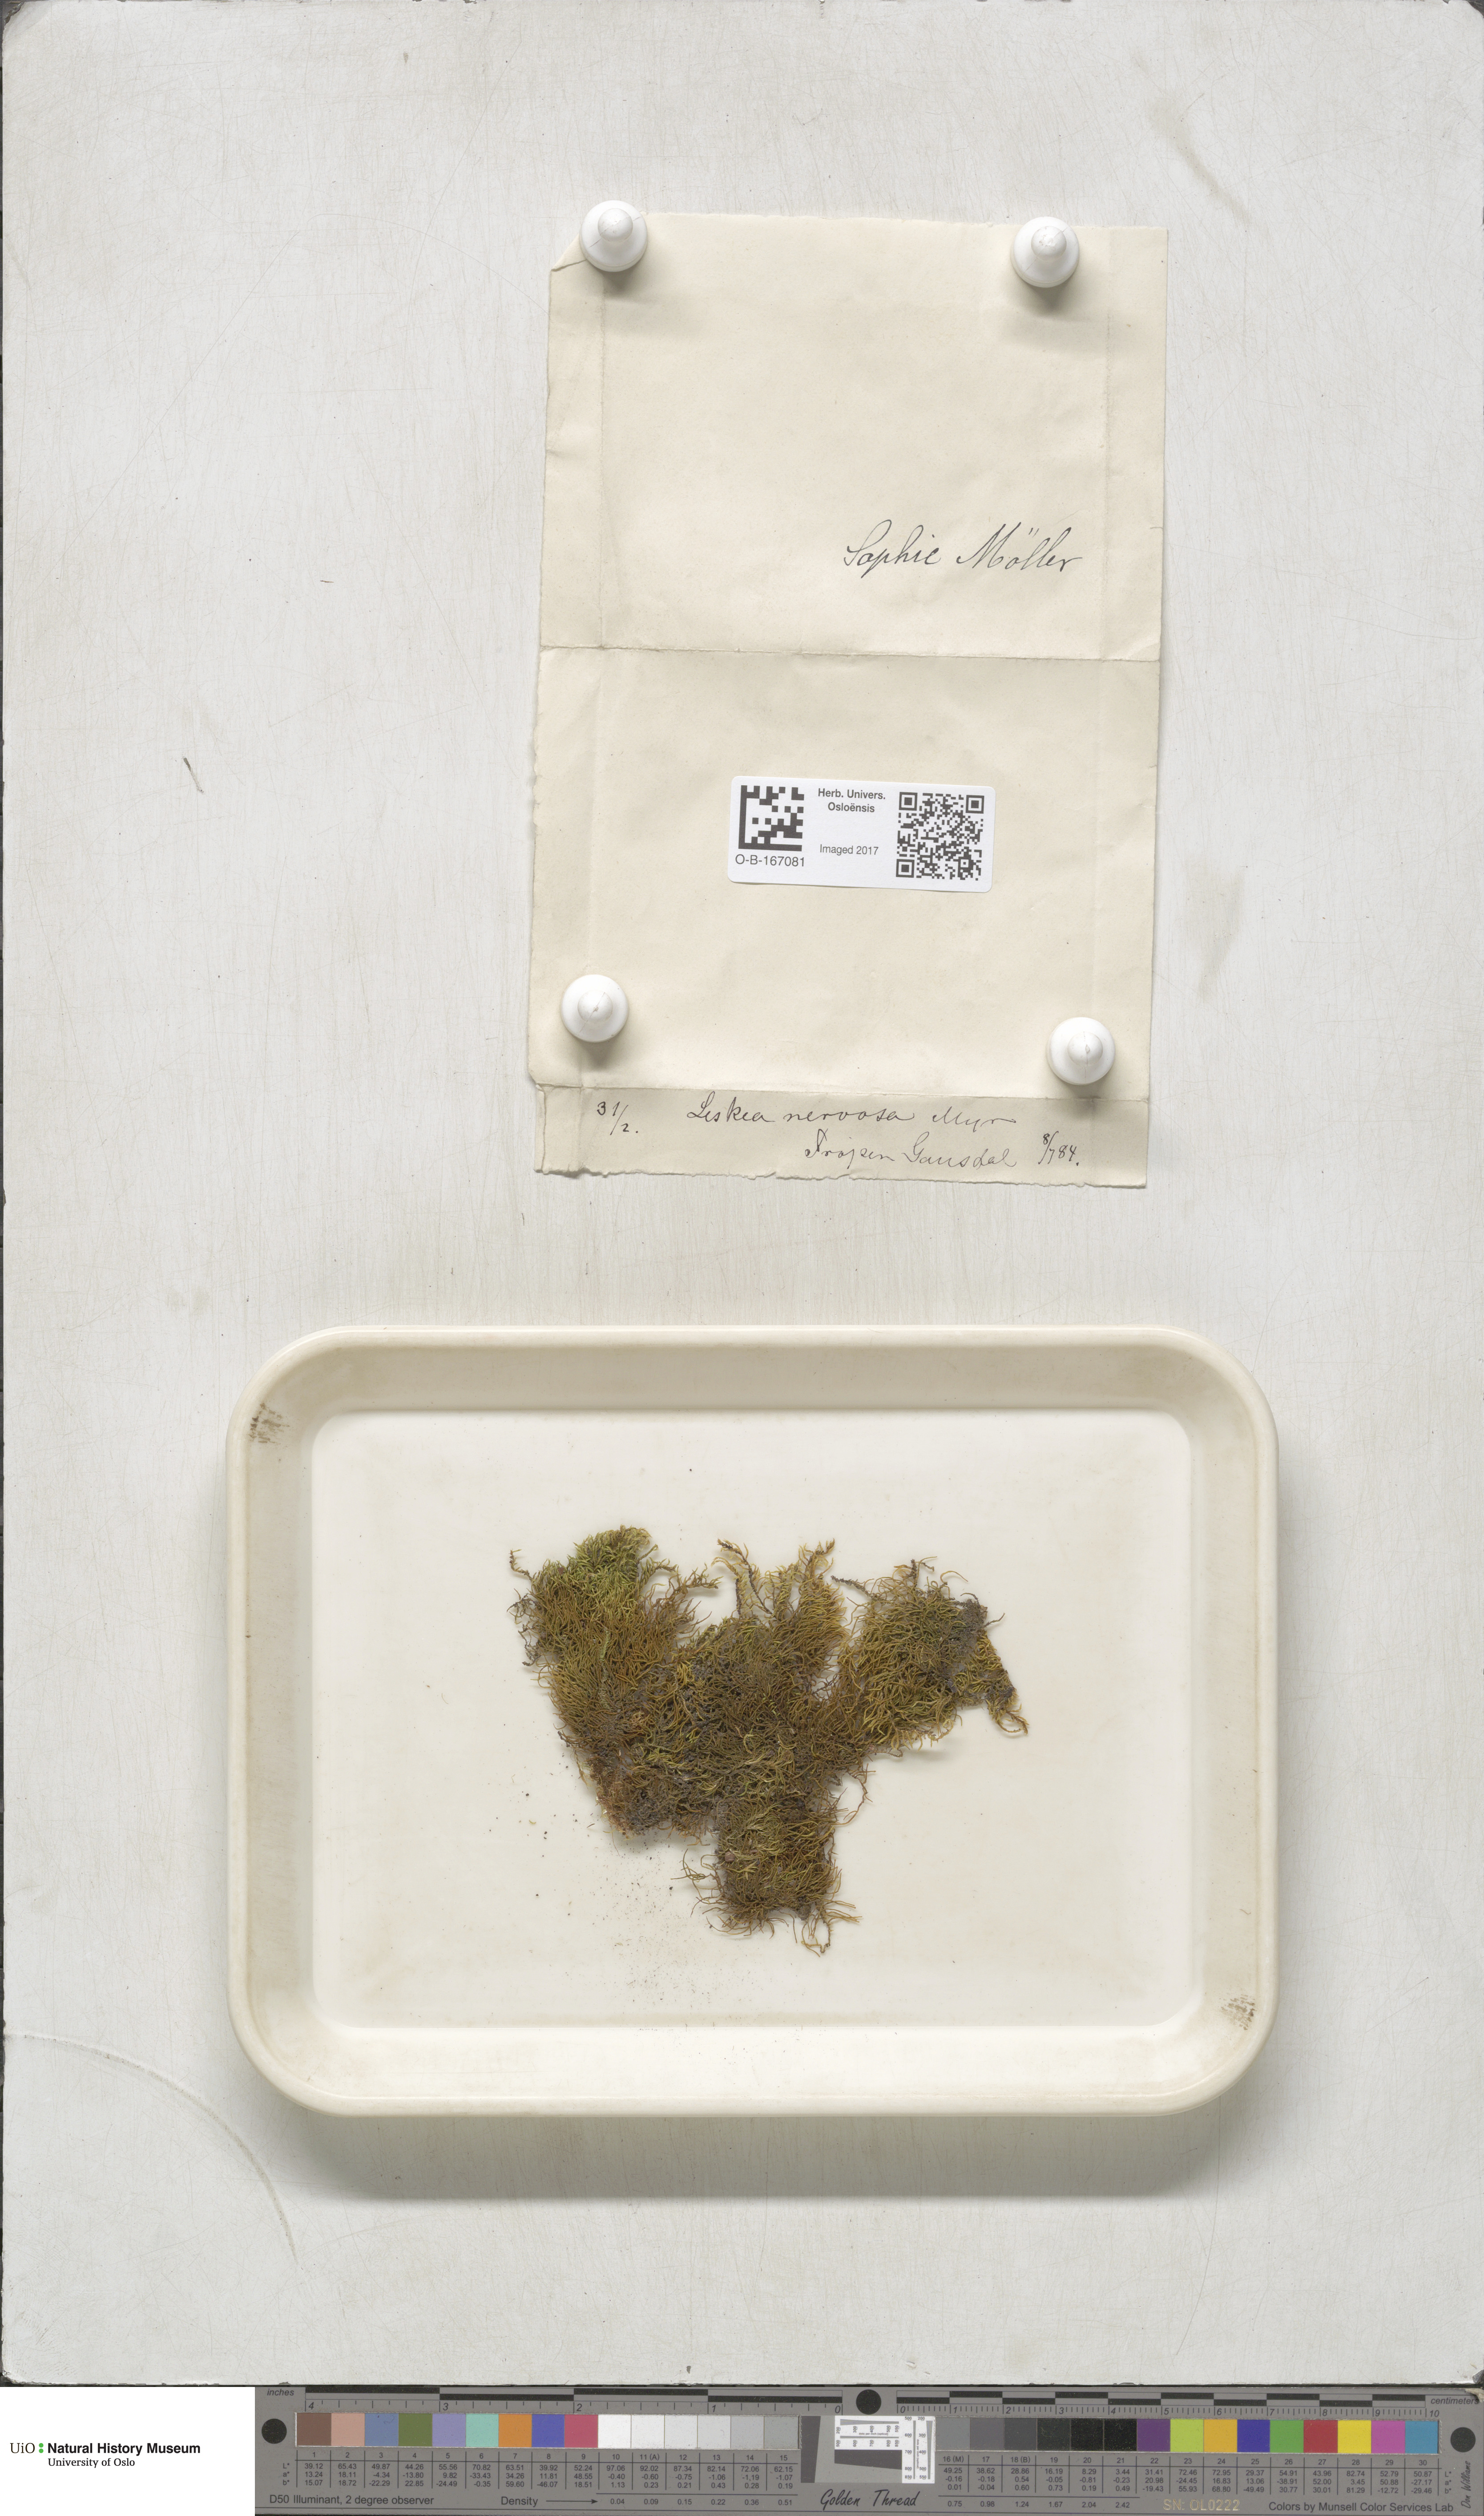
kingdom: Plantae
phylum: Bryophyta
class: Bryopsida
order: Hypnales
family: Pseudoleskeellaceae
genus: Pseudoleskeella
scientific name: Pseudoleskeella nervosa
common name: Nerved leske's moss
